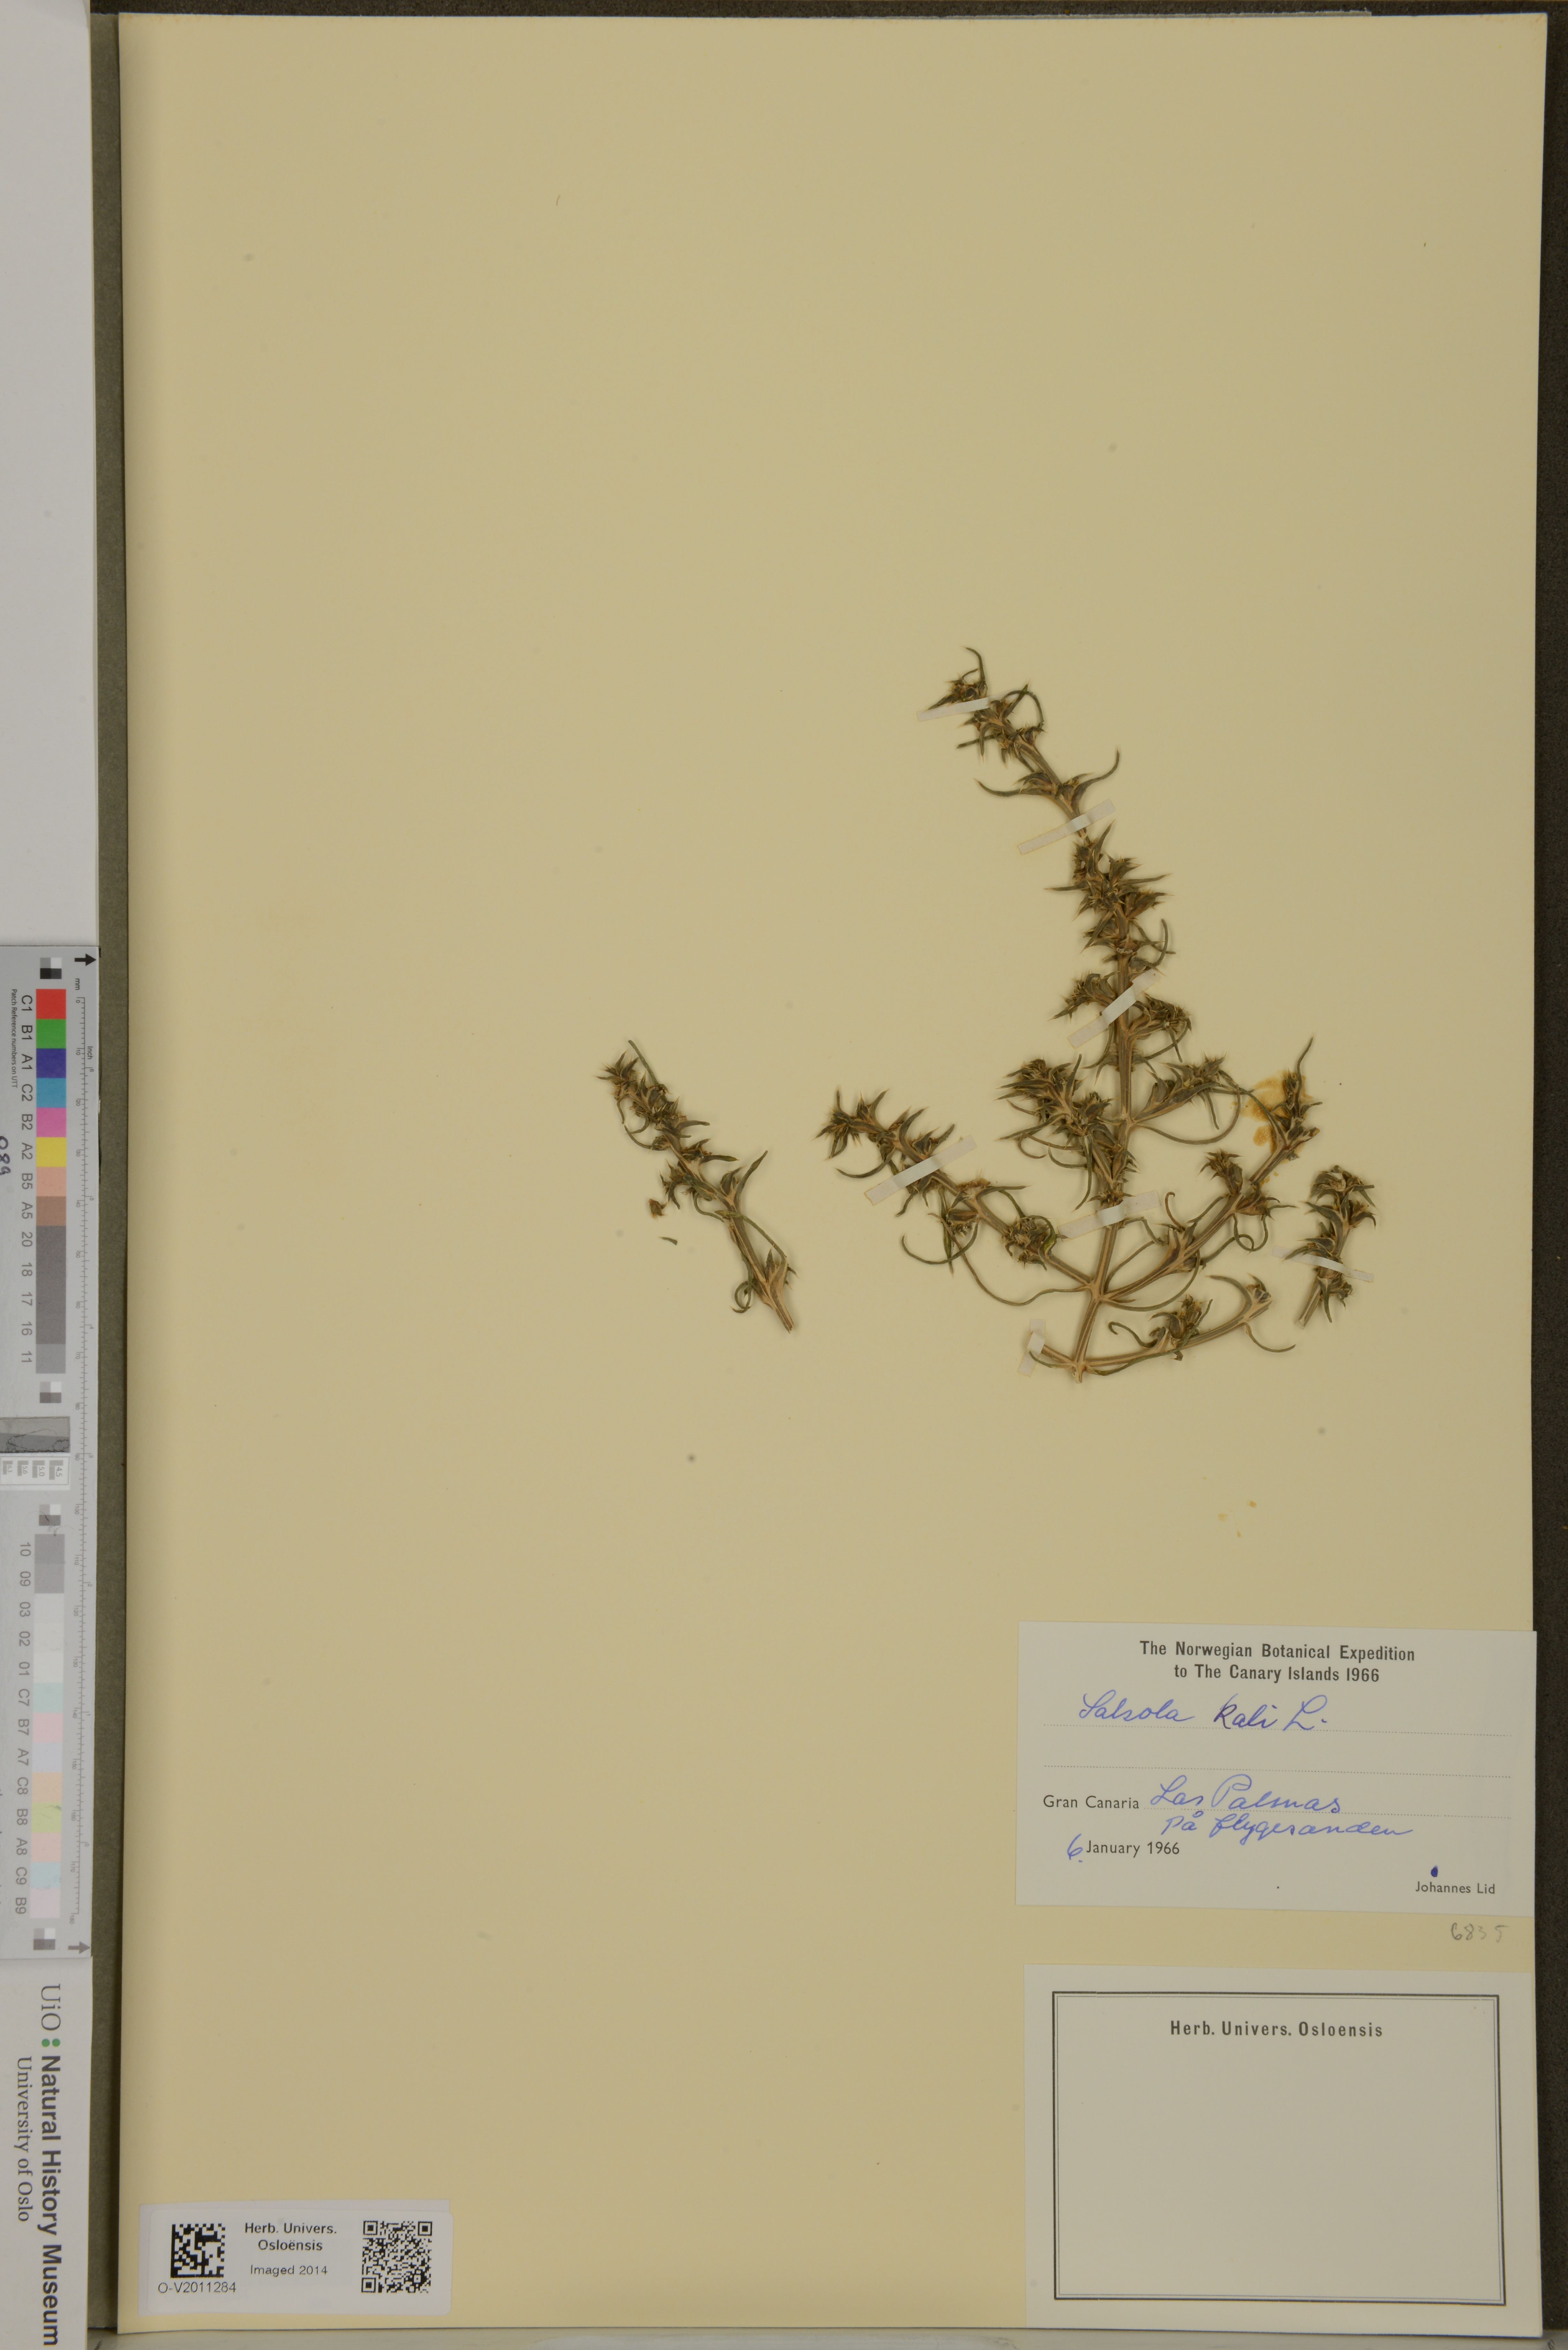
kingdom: Plantae
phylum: Tracheophyta
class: Magnoliopsida
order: Caryophyllales
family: Amaranthaceae
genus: Salsola
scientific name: Salsola kali
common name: Saltwort
